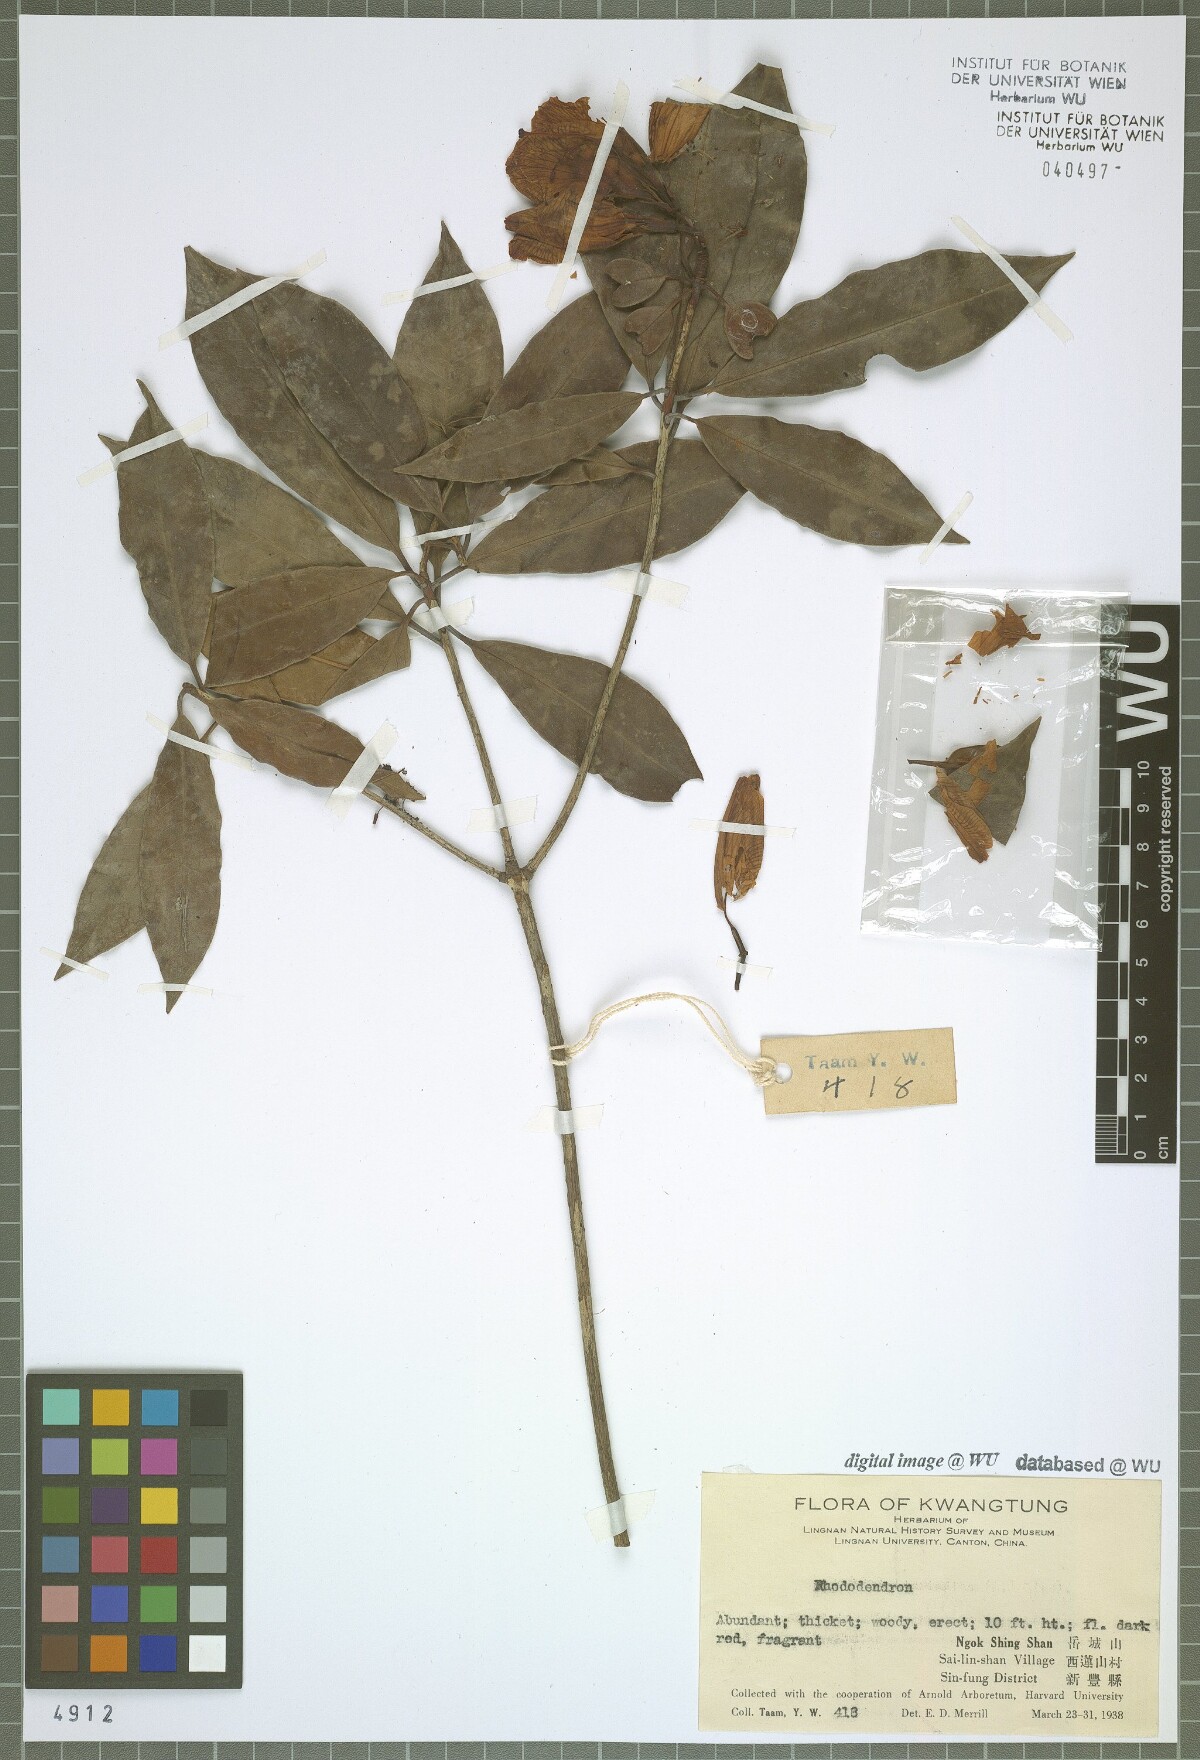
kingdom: Plantae
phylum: Tracheophyta
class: Magnoliopsida
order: Ericales
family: Ericaceae
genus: Rhododendron
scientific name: Rhododendron
